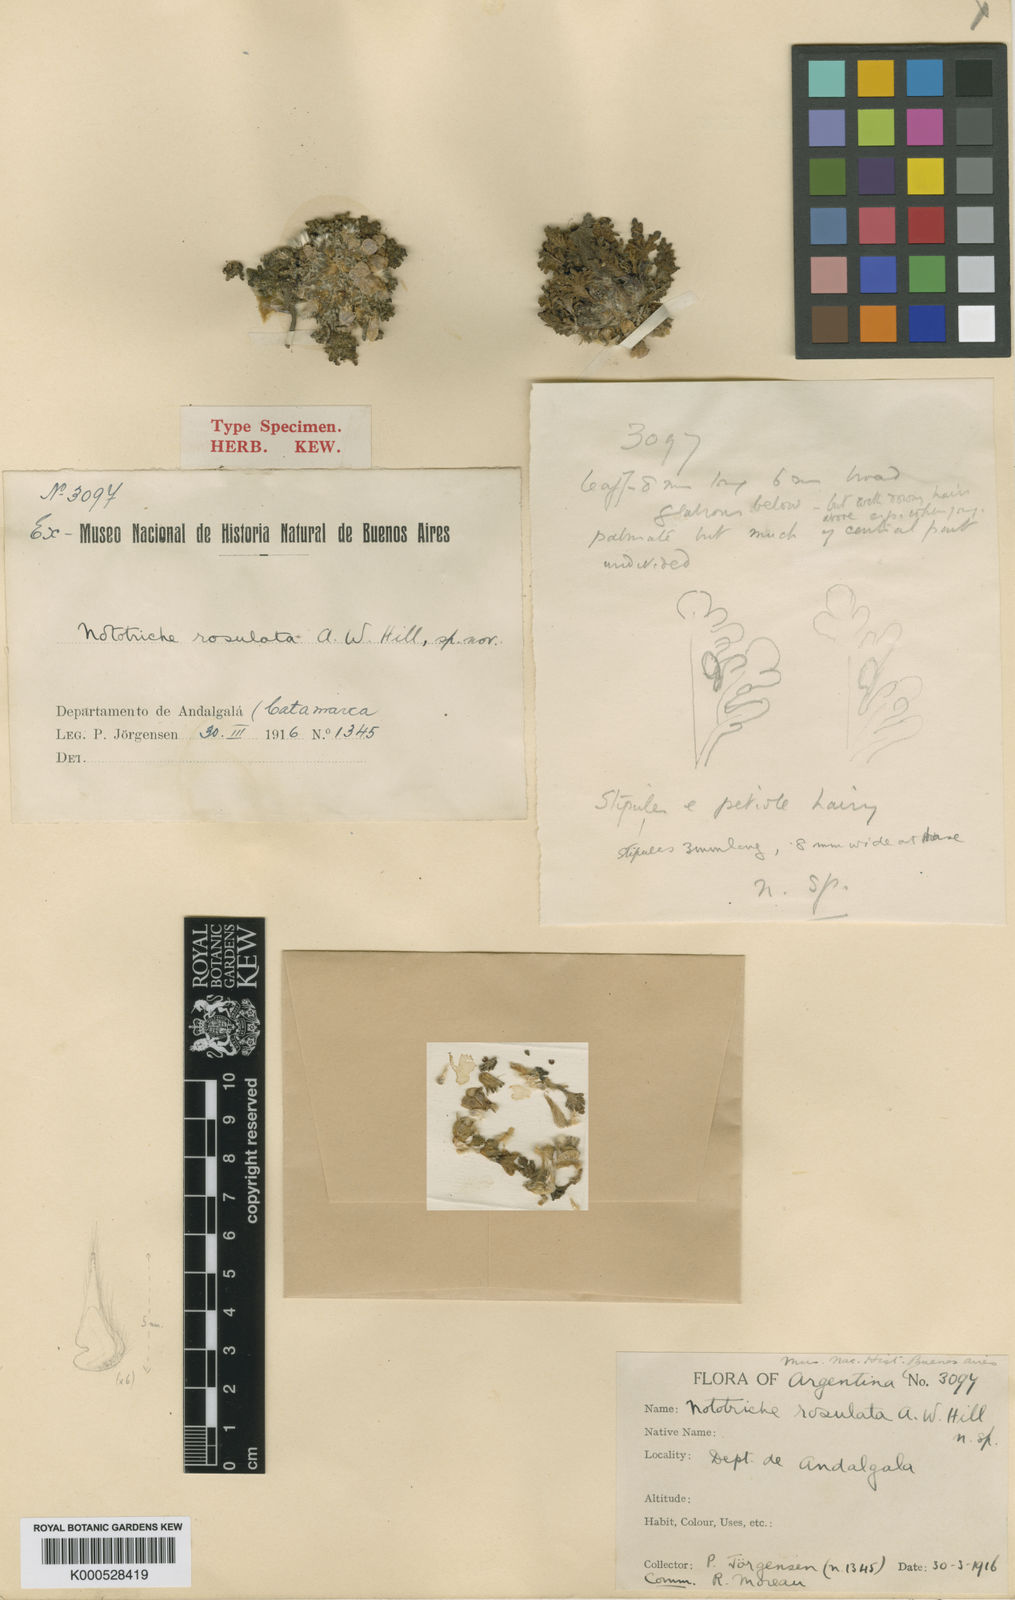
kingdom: Plantae
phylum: Tracheophyta
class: Magnoliopsida
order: Malvales
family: Malvaceae
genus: Nototriche
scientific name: Nototriche caesia
